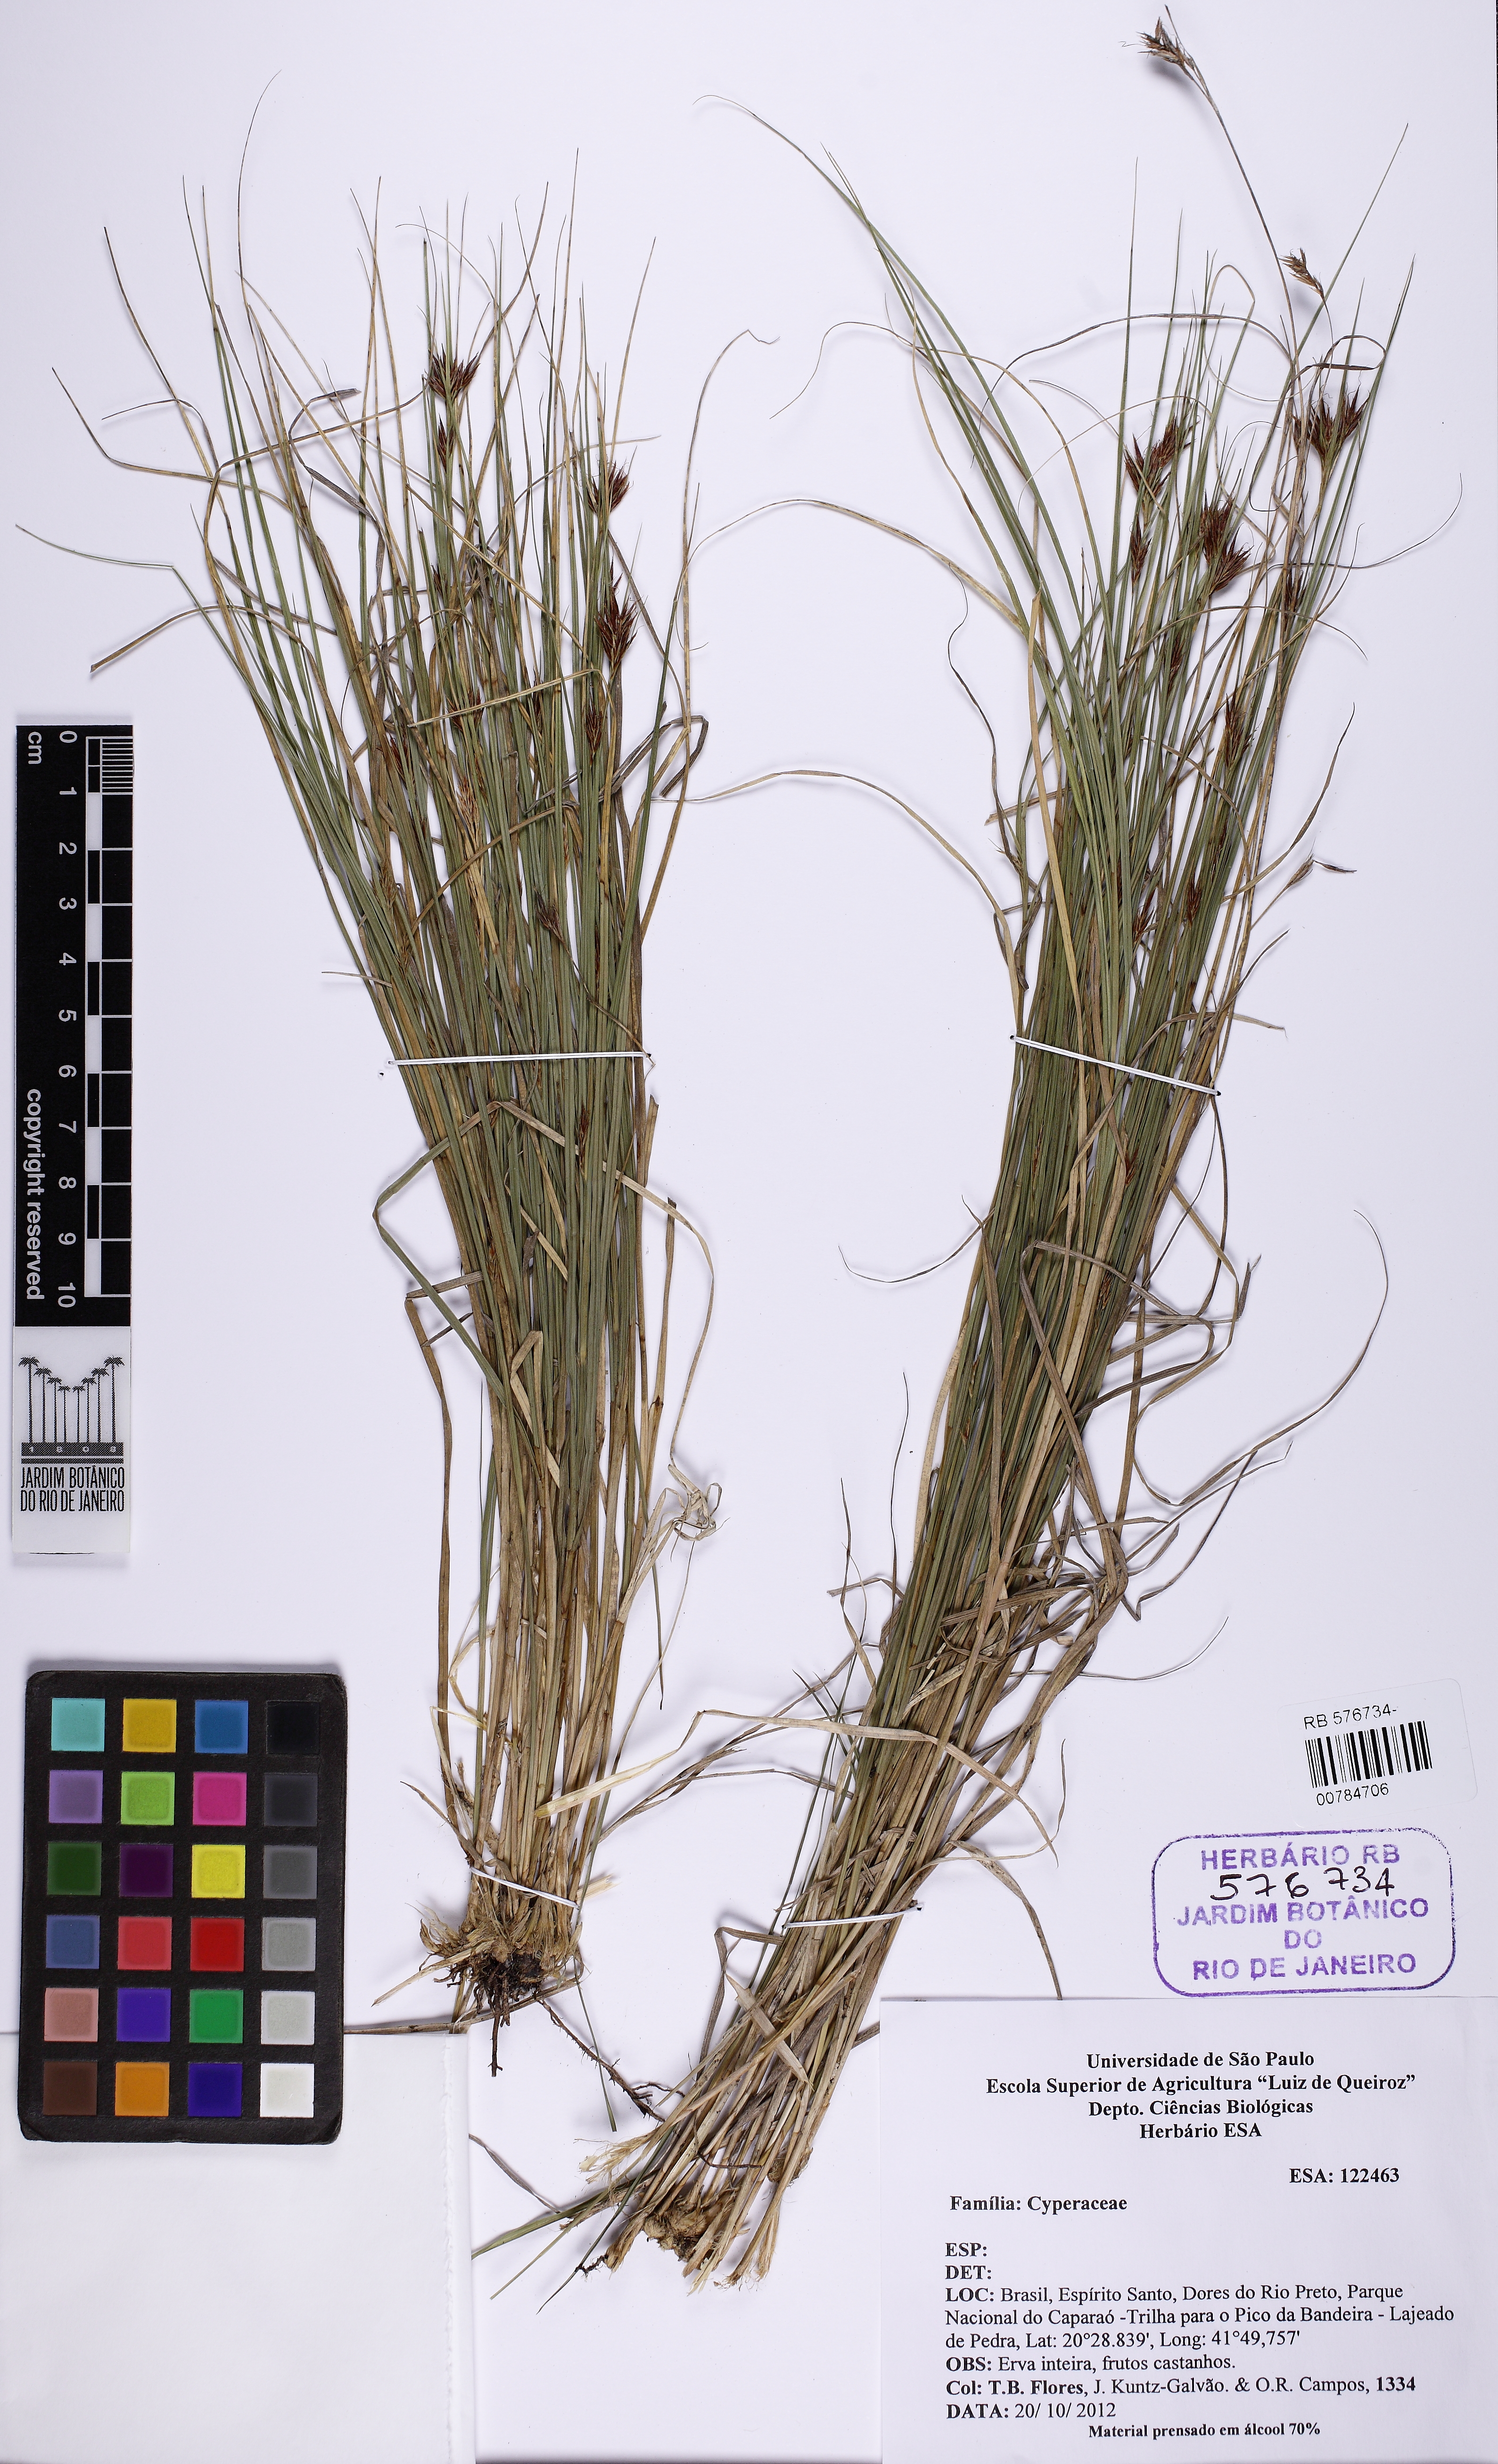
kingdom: Plantae
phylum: Tracheophyta
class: Liliopsida
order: Poales
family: Cyperaceae
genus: Rhynchospora
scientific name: Rhynchospora
